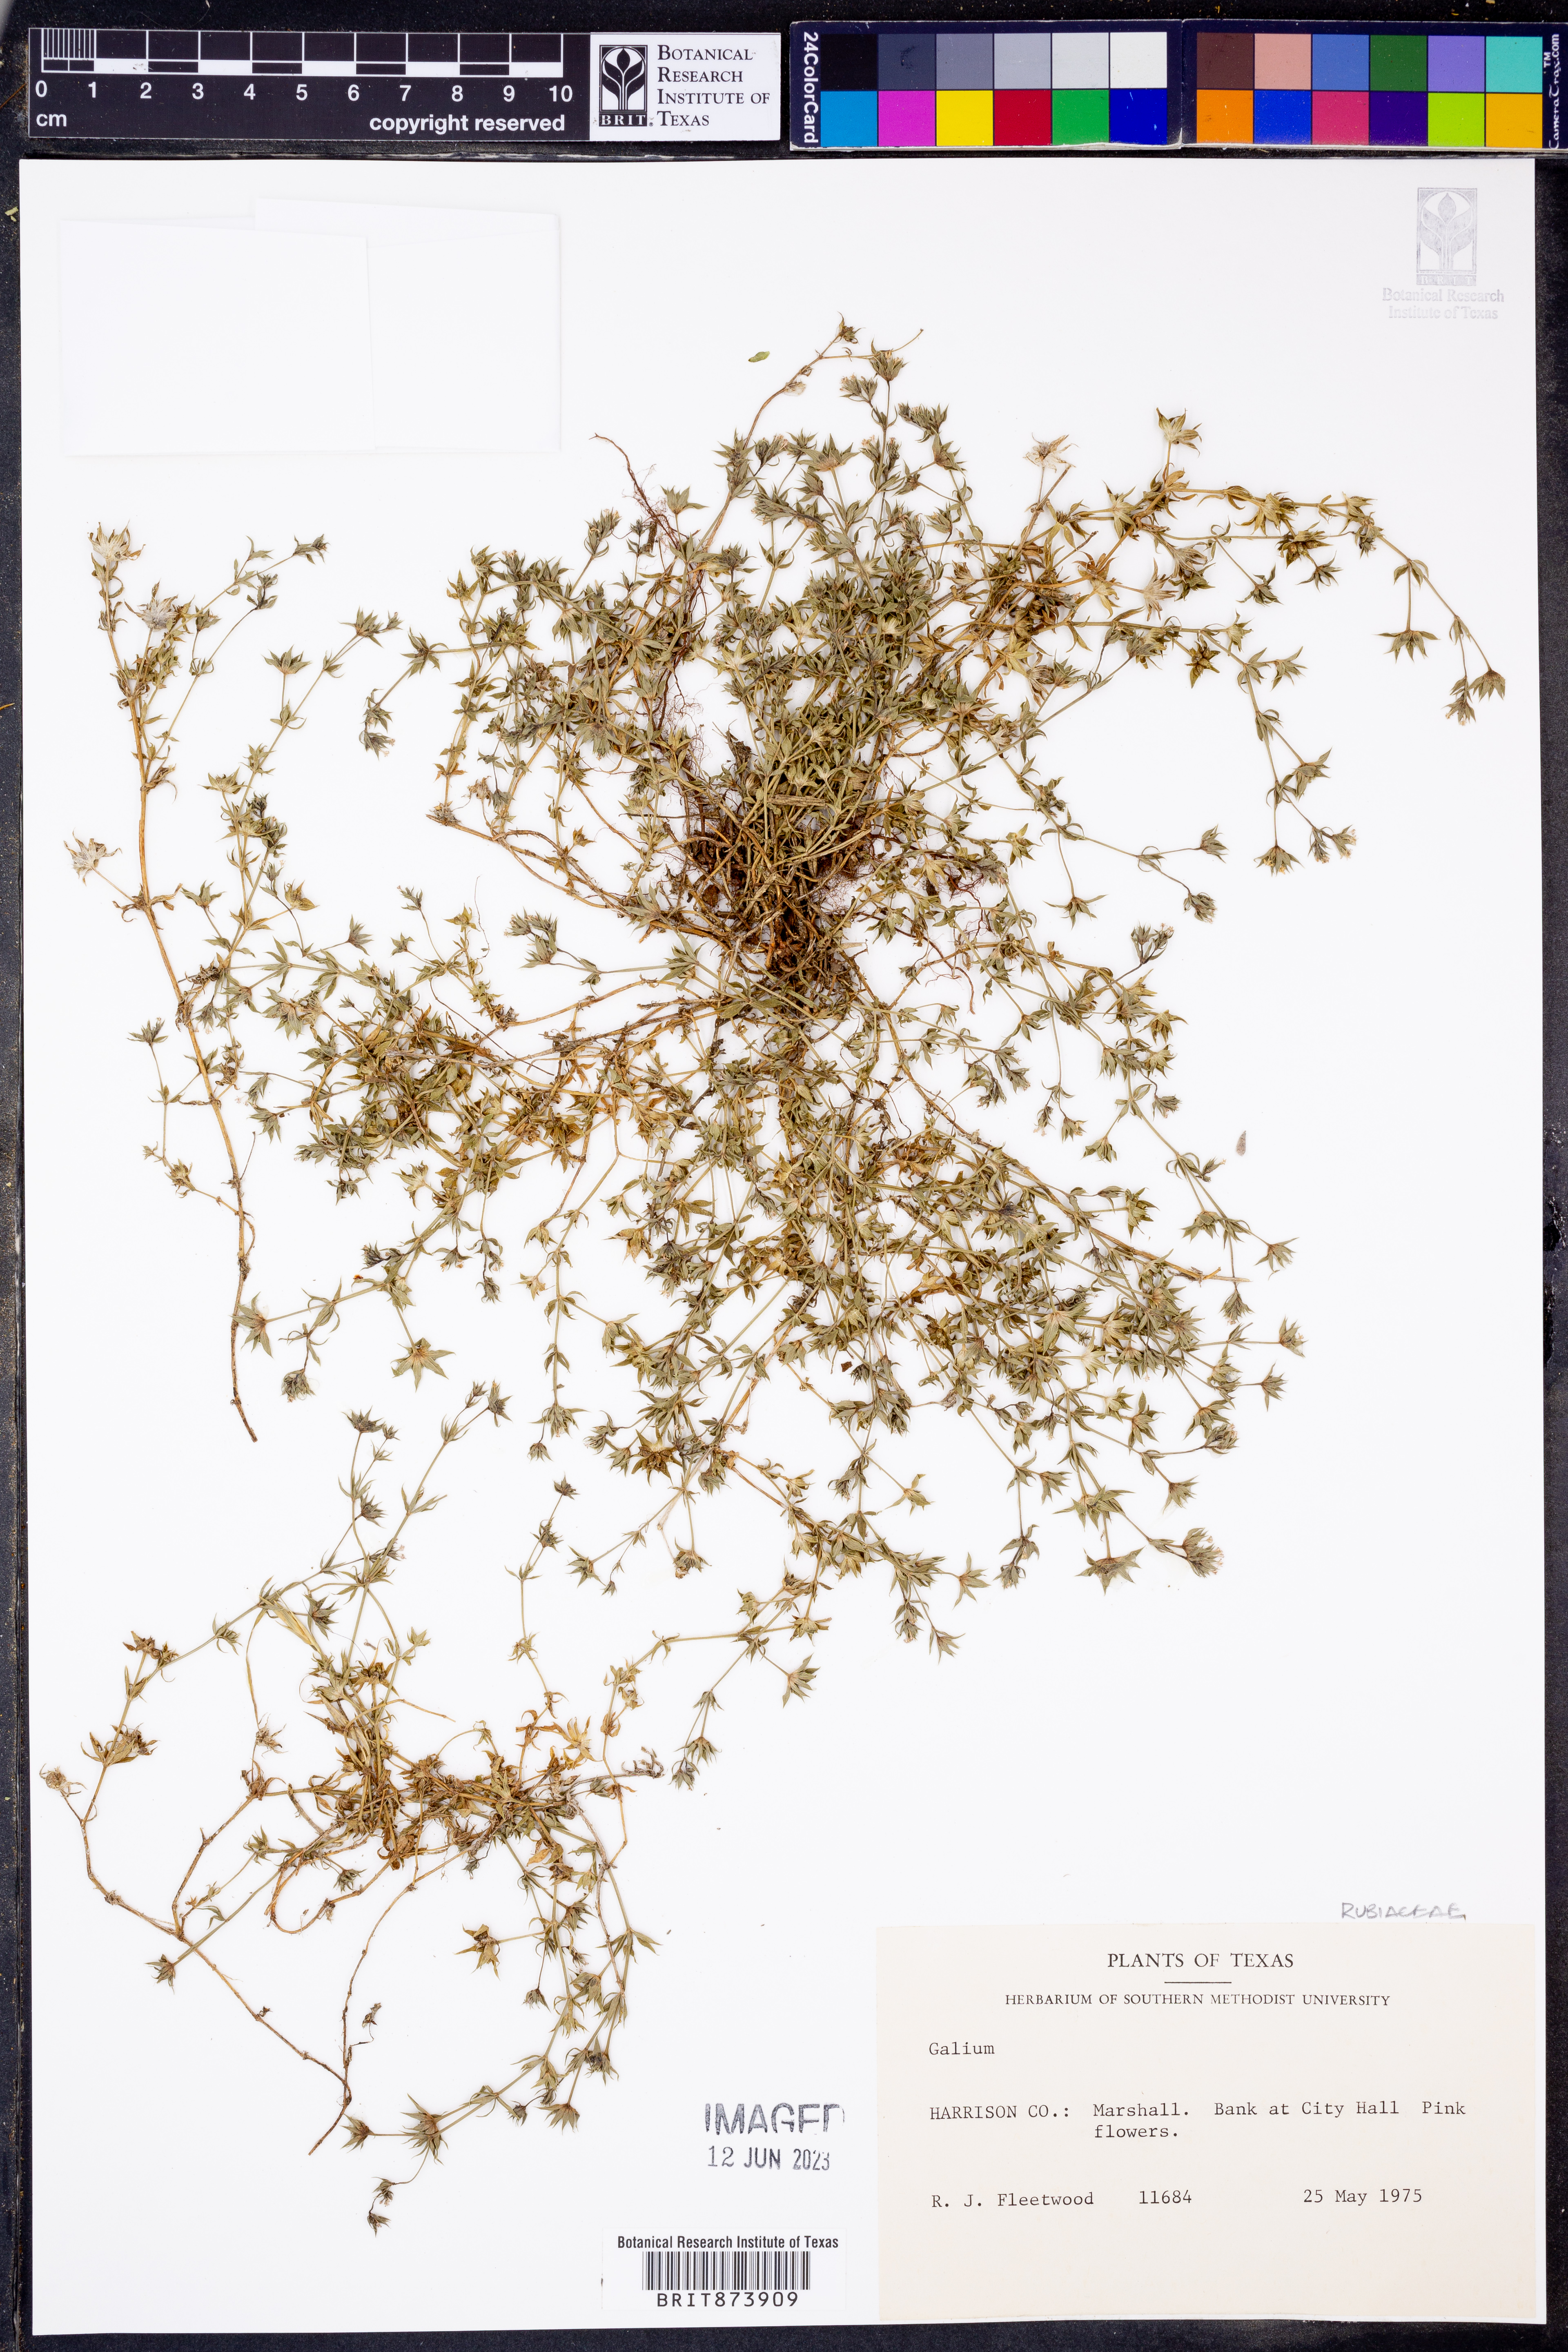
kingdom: Plantae
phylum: Tracheophyta
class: Magnoliopsida
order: Gentianales
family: Rubiaceae
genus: Galium
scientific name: Galium
